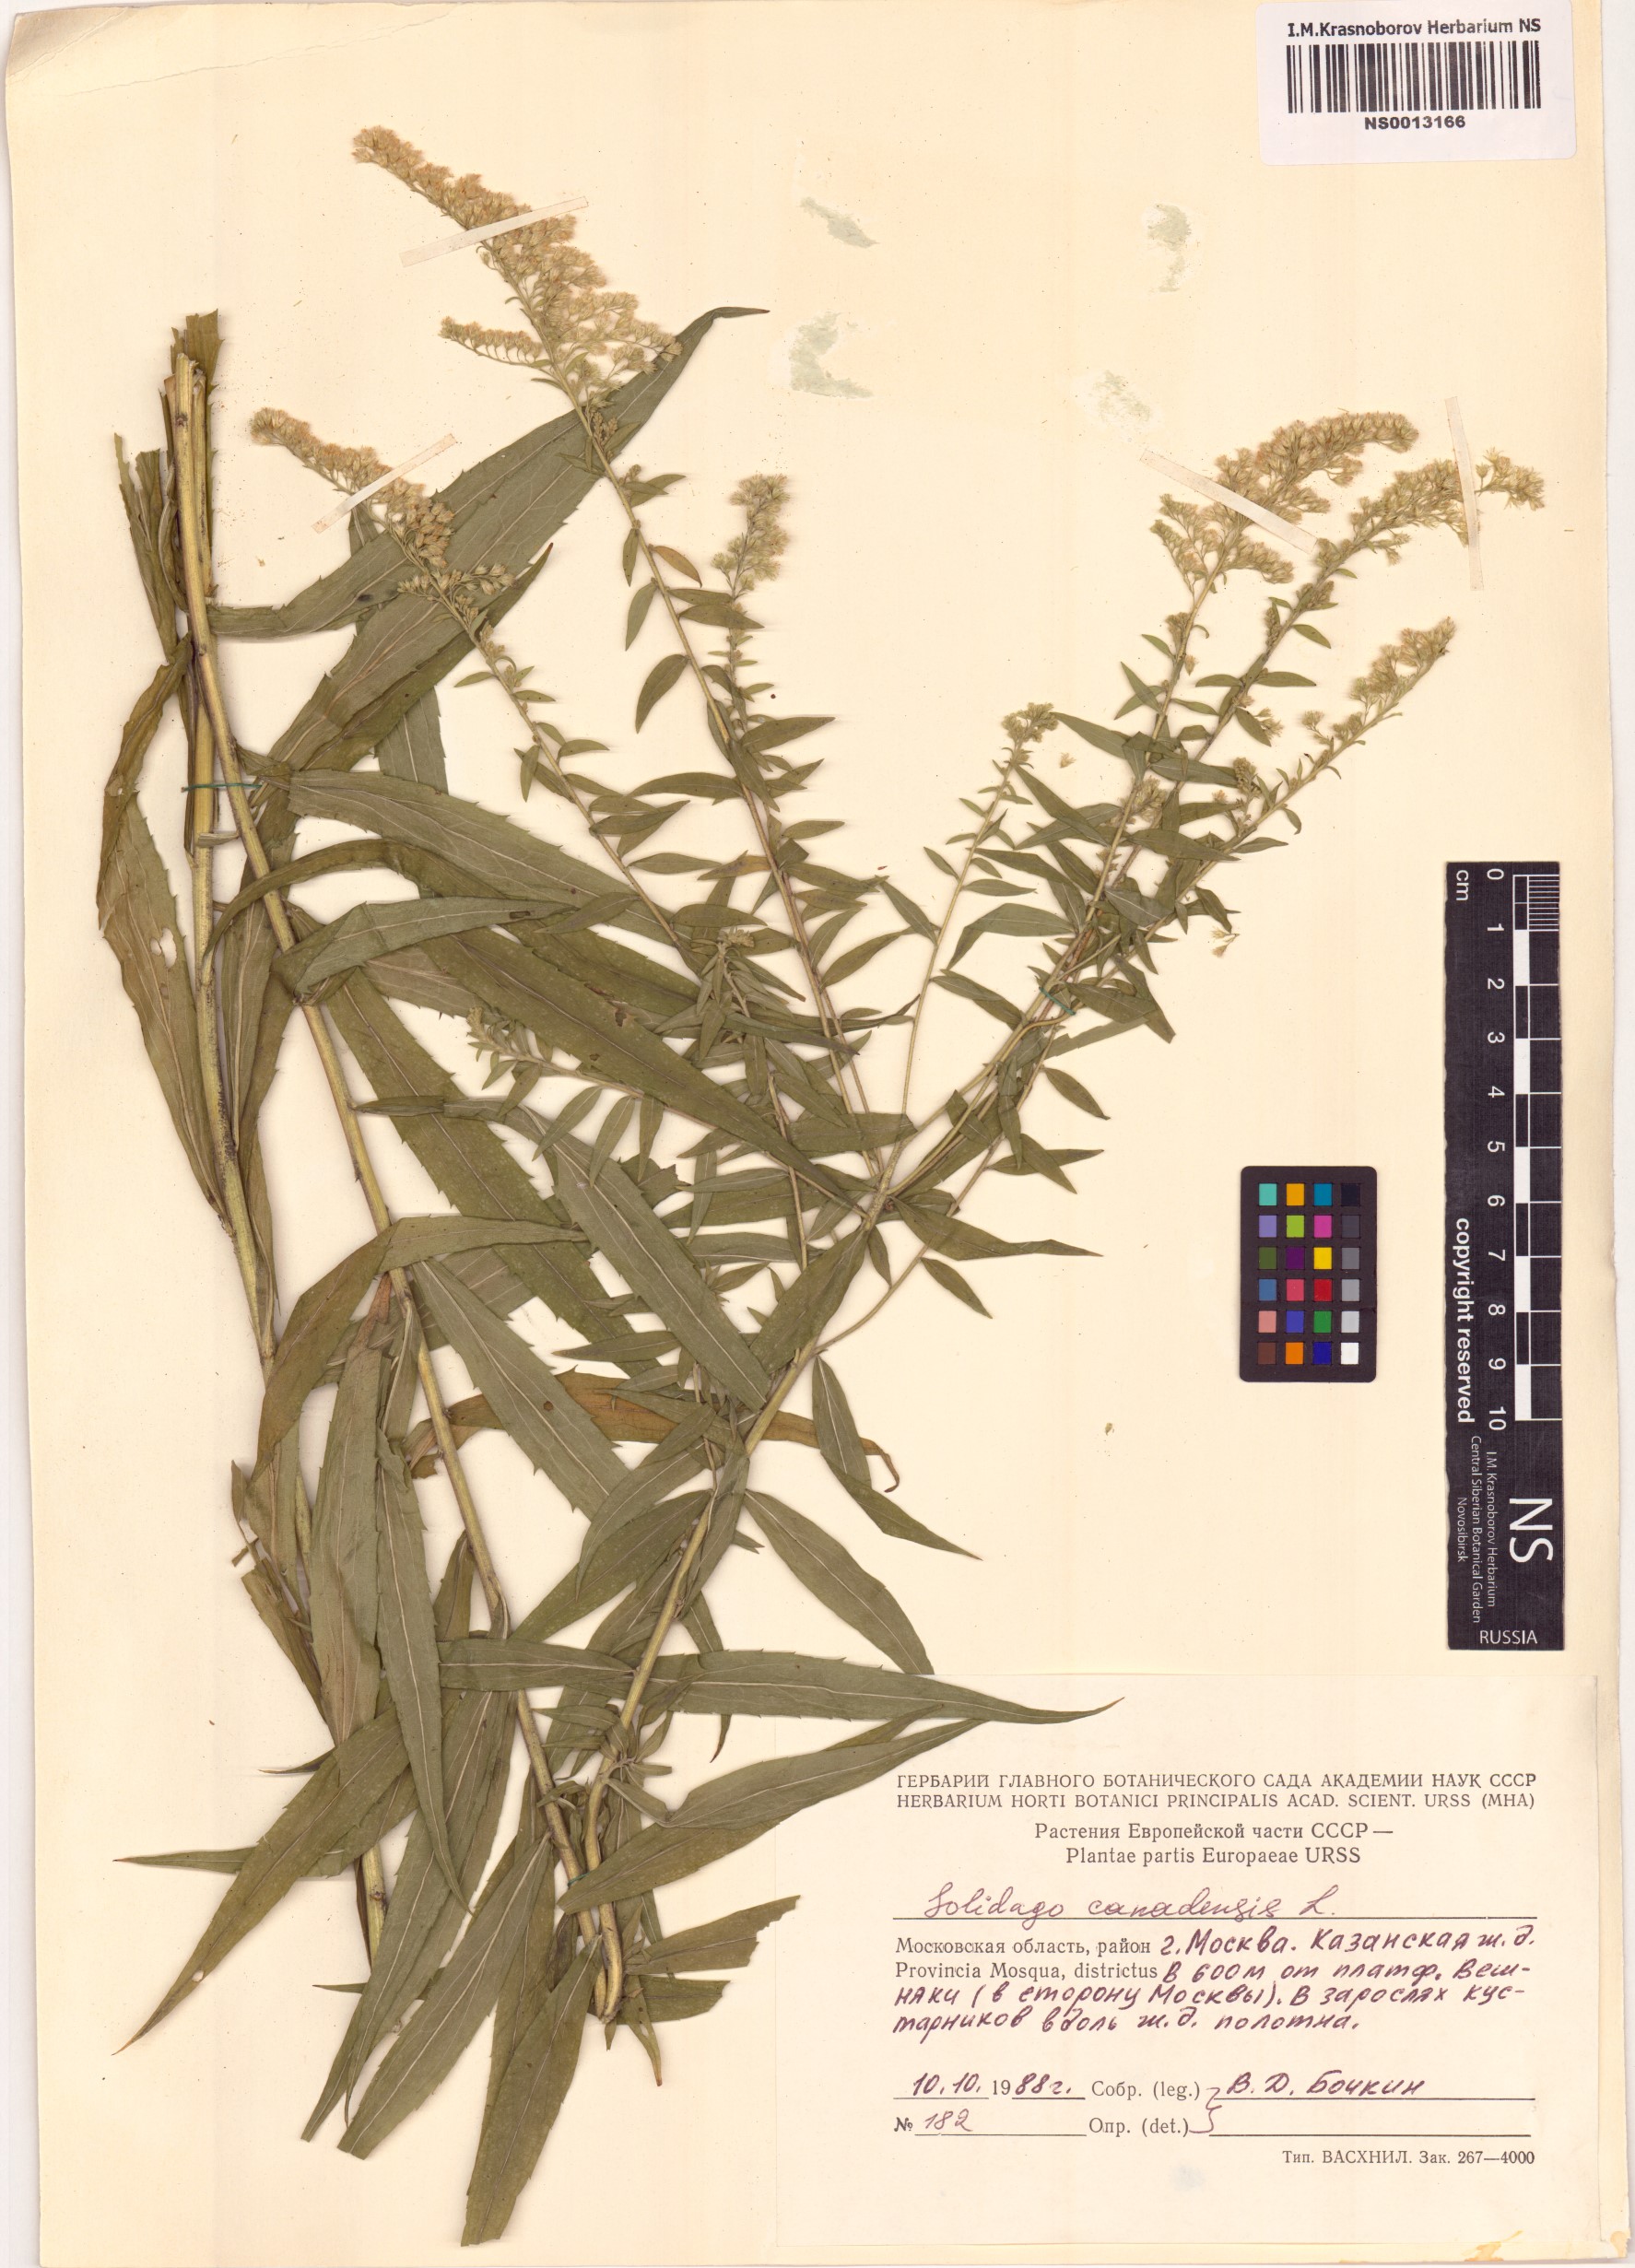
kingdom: Plantae
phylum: Tracheophyta
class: Magnoliopsida
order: Asterales
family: Asteraceae
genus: Solidago
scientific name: Solidago canadensis
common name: Canada goldenrod
